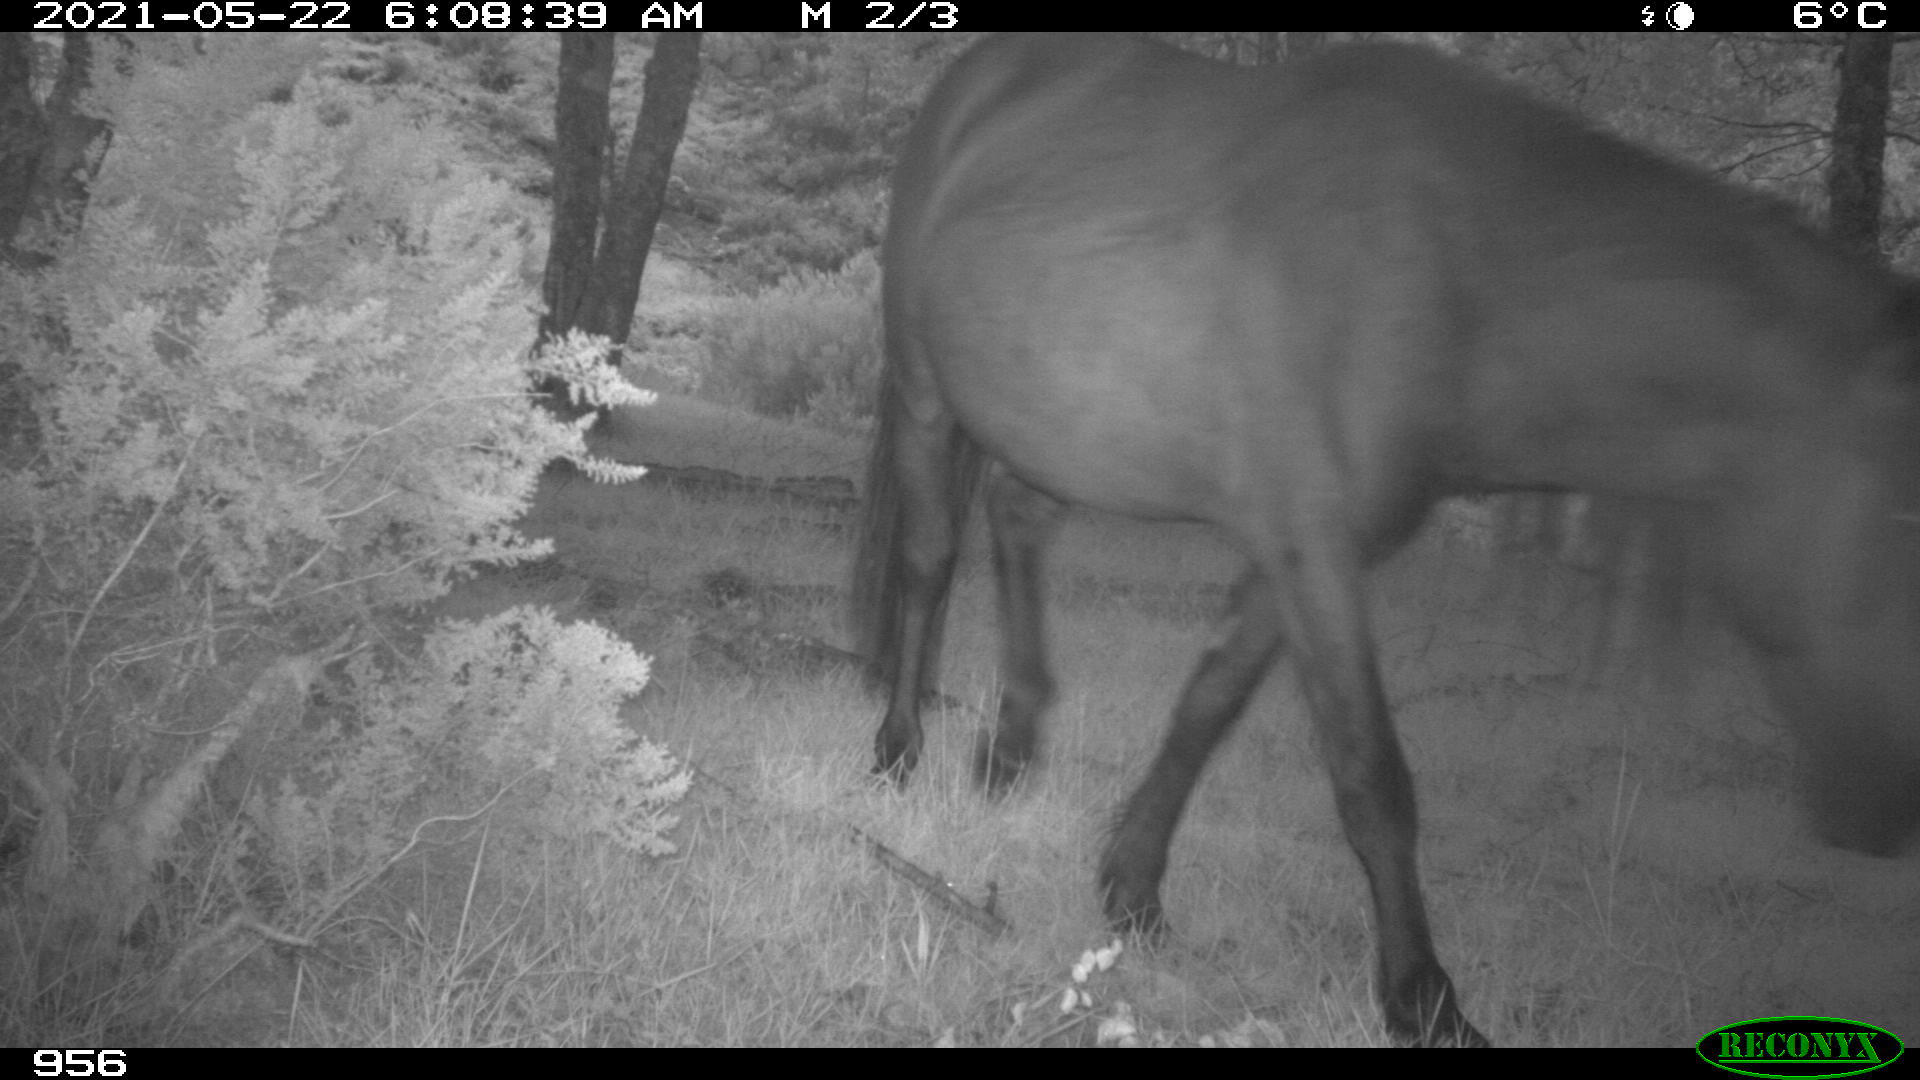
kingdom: Animalia
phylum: Chordata
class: Mammalia
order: Perissodactyla
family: Equidae
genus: Equus
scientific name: Equus caballus
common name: Horse
